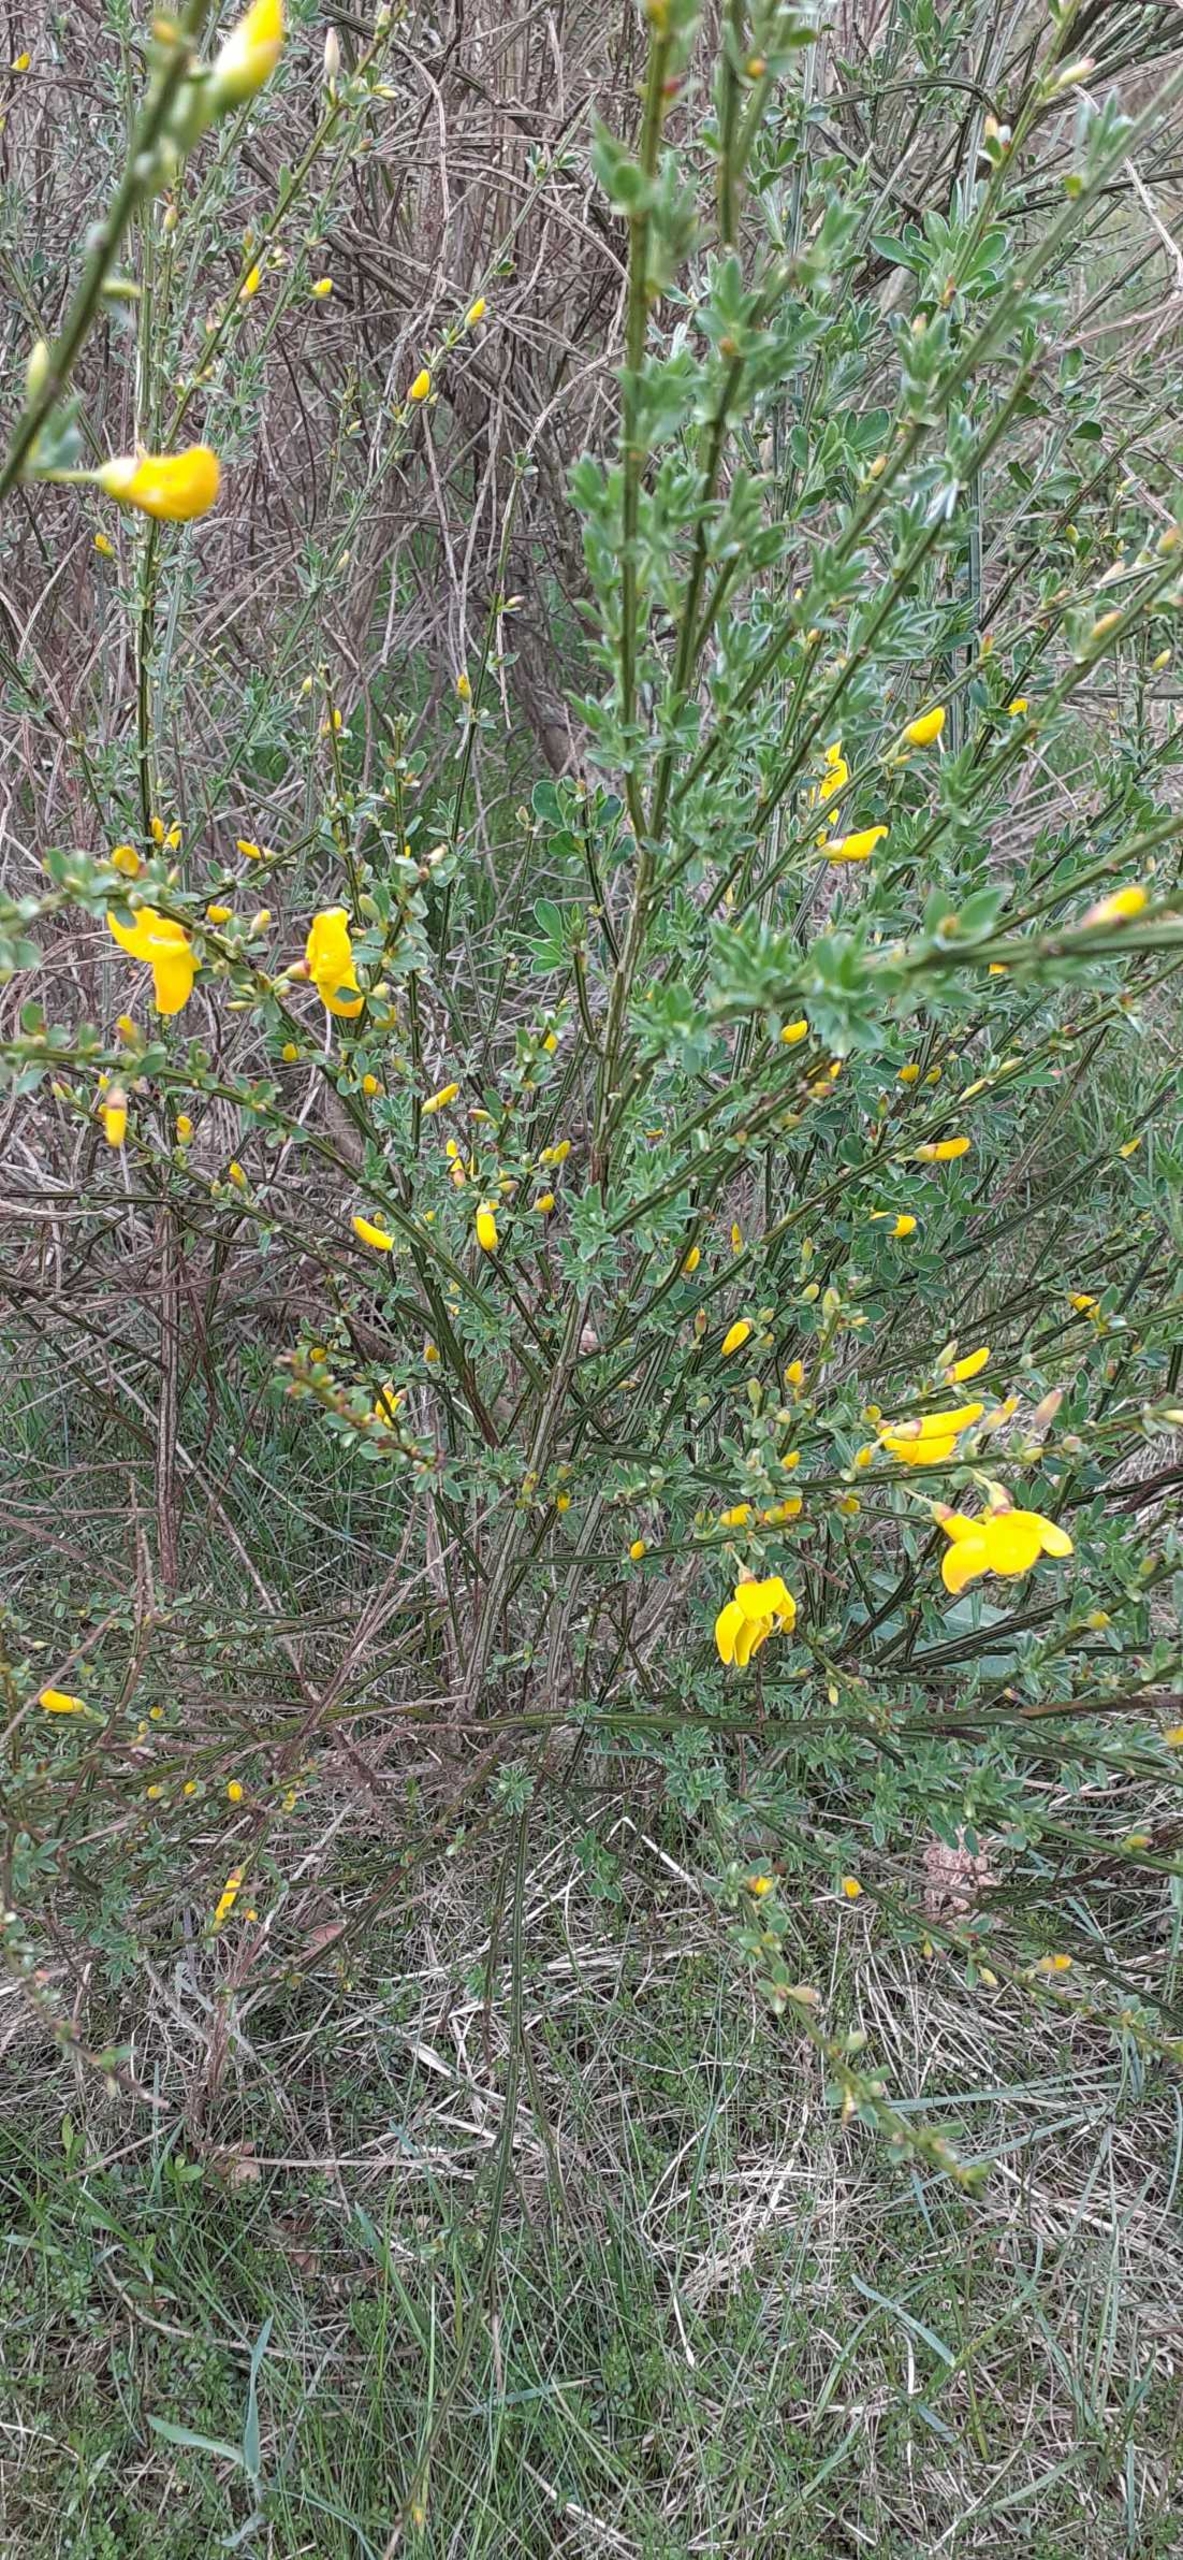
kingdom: Plantae
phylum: Tracheophyta
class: Magnoliopsida
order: Fabales
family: Fabaceae
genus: Cytisus
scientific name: Cytisus scoparius
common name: Almindelig gyvel
